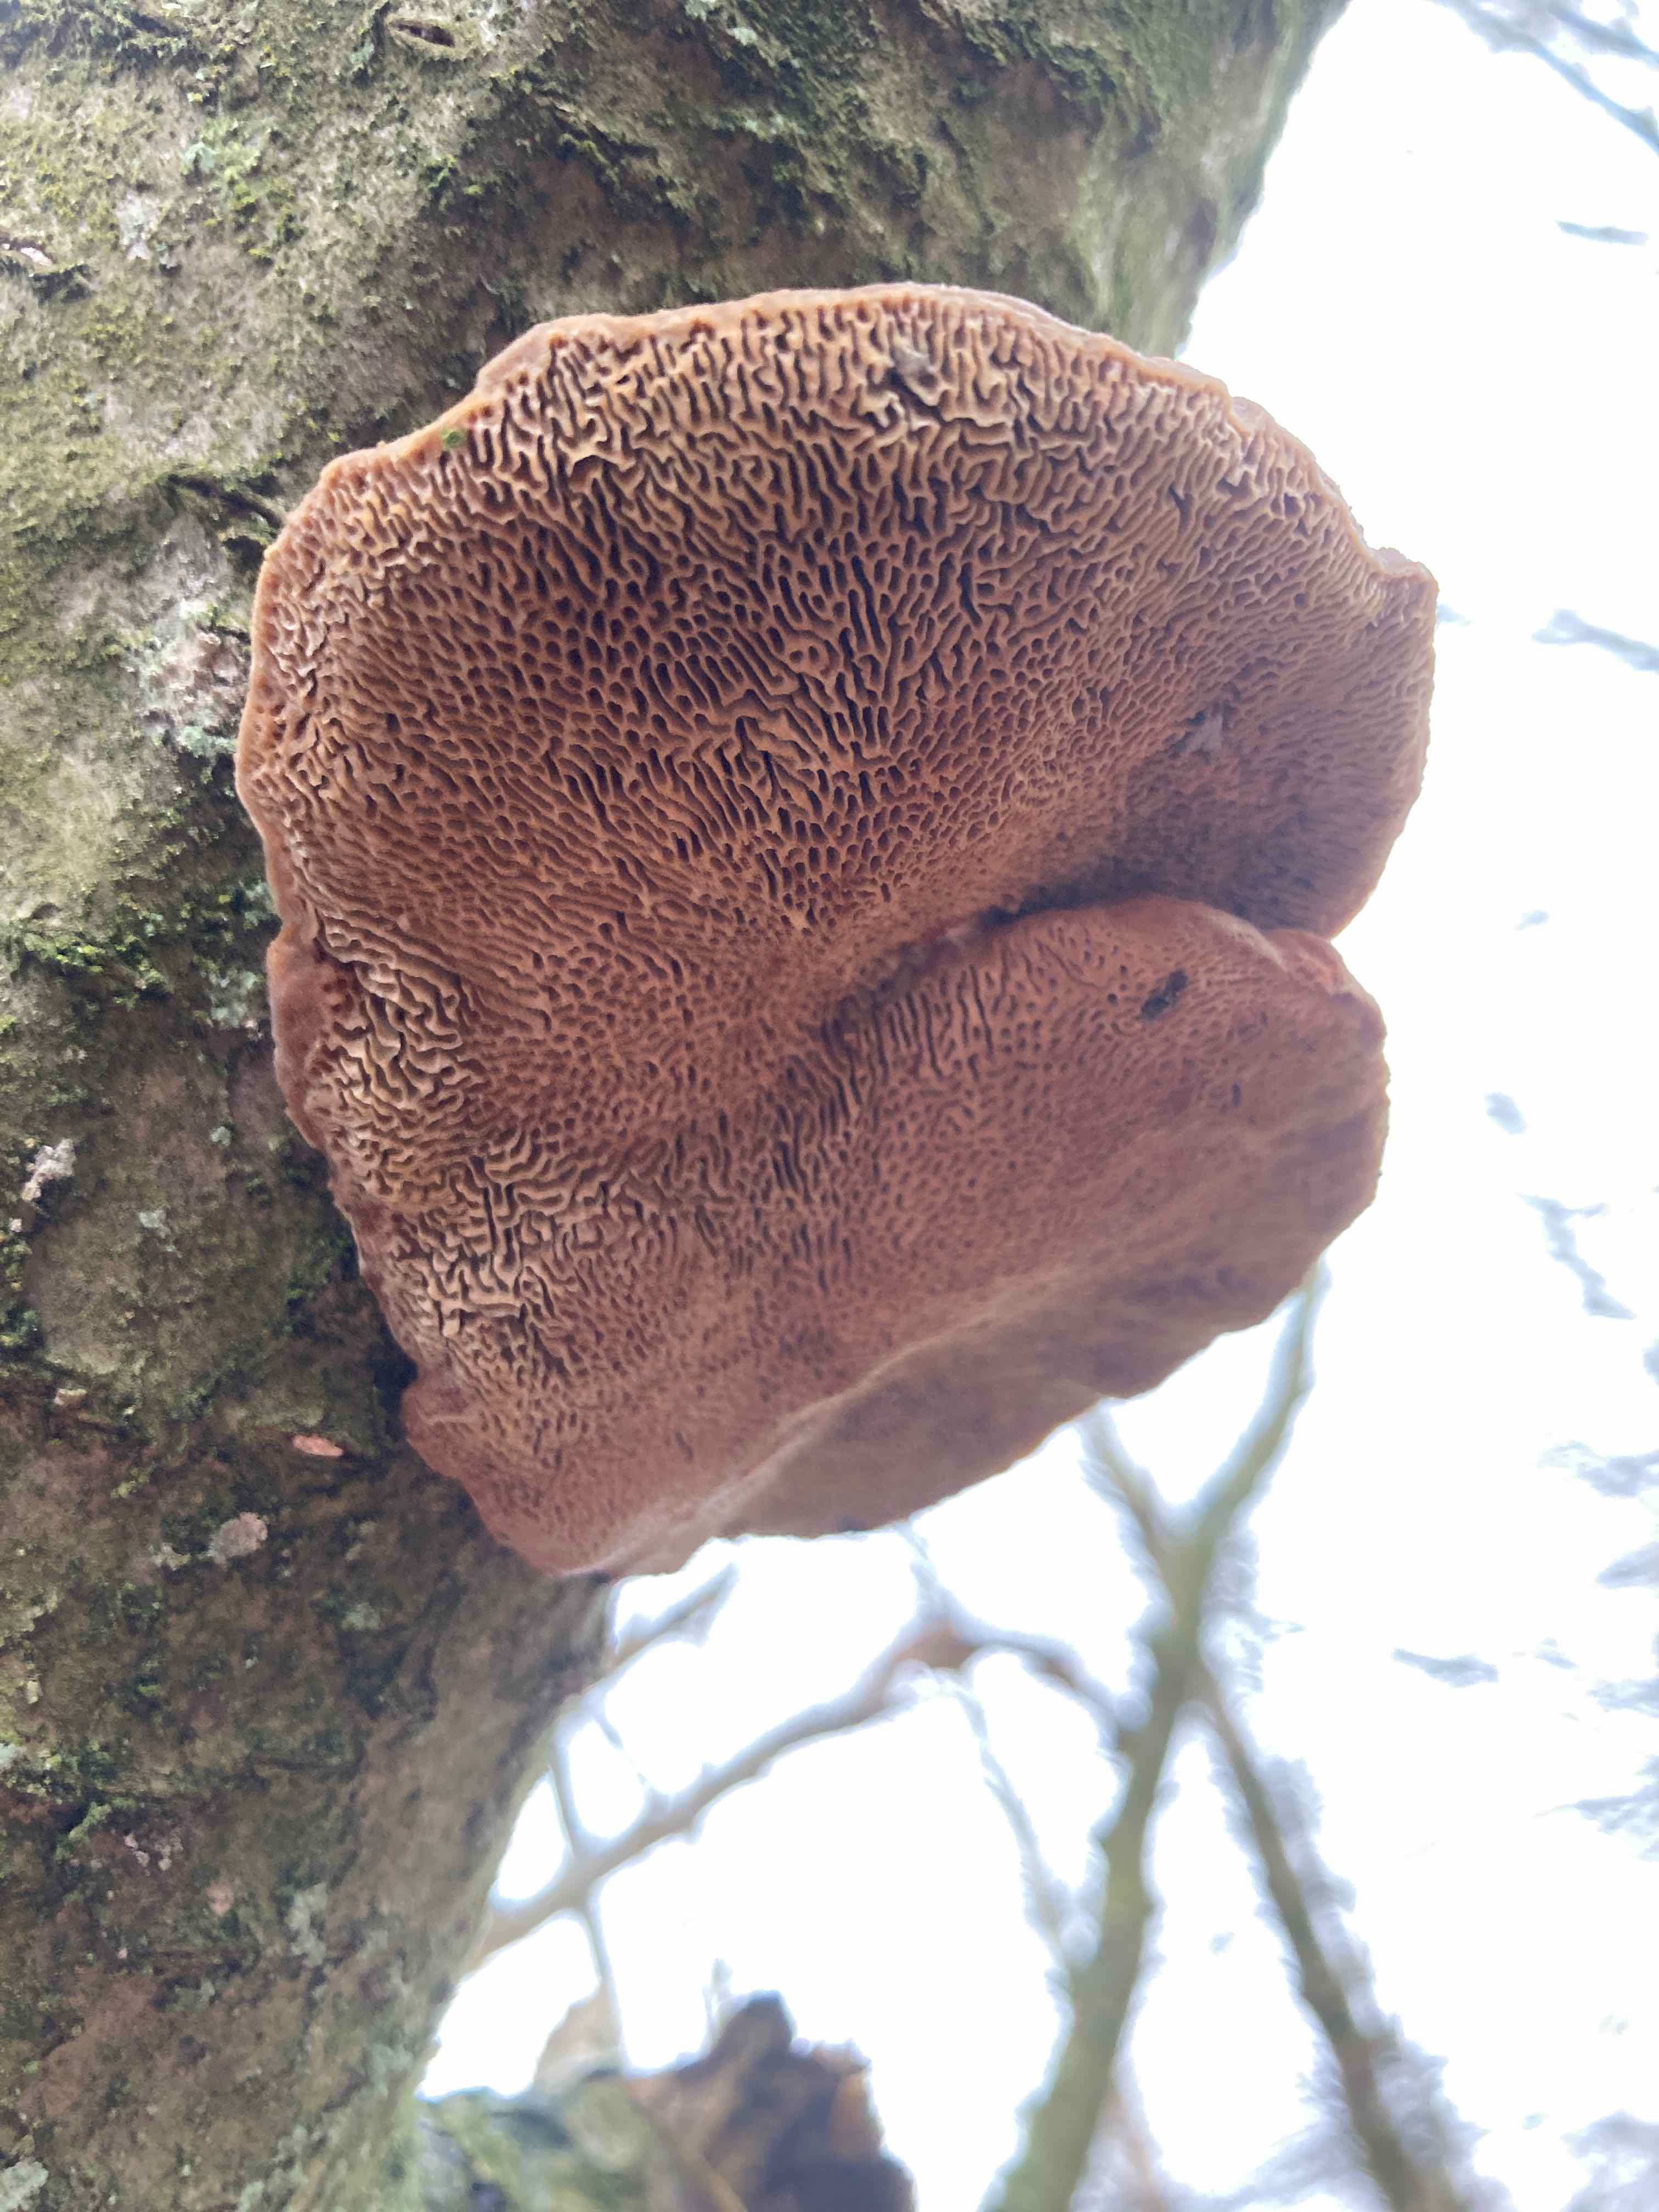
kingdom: Fungi
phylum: Basidiomycota
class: Agaricomycetes
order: Polyporales
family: Polyporaceae
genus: Daedaleopsis
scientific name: Daedaleopsis confragosa
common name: rødmende læderporesvamp
